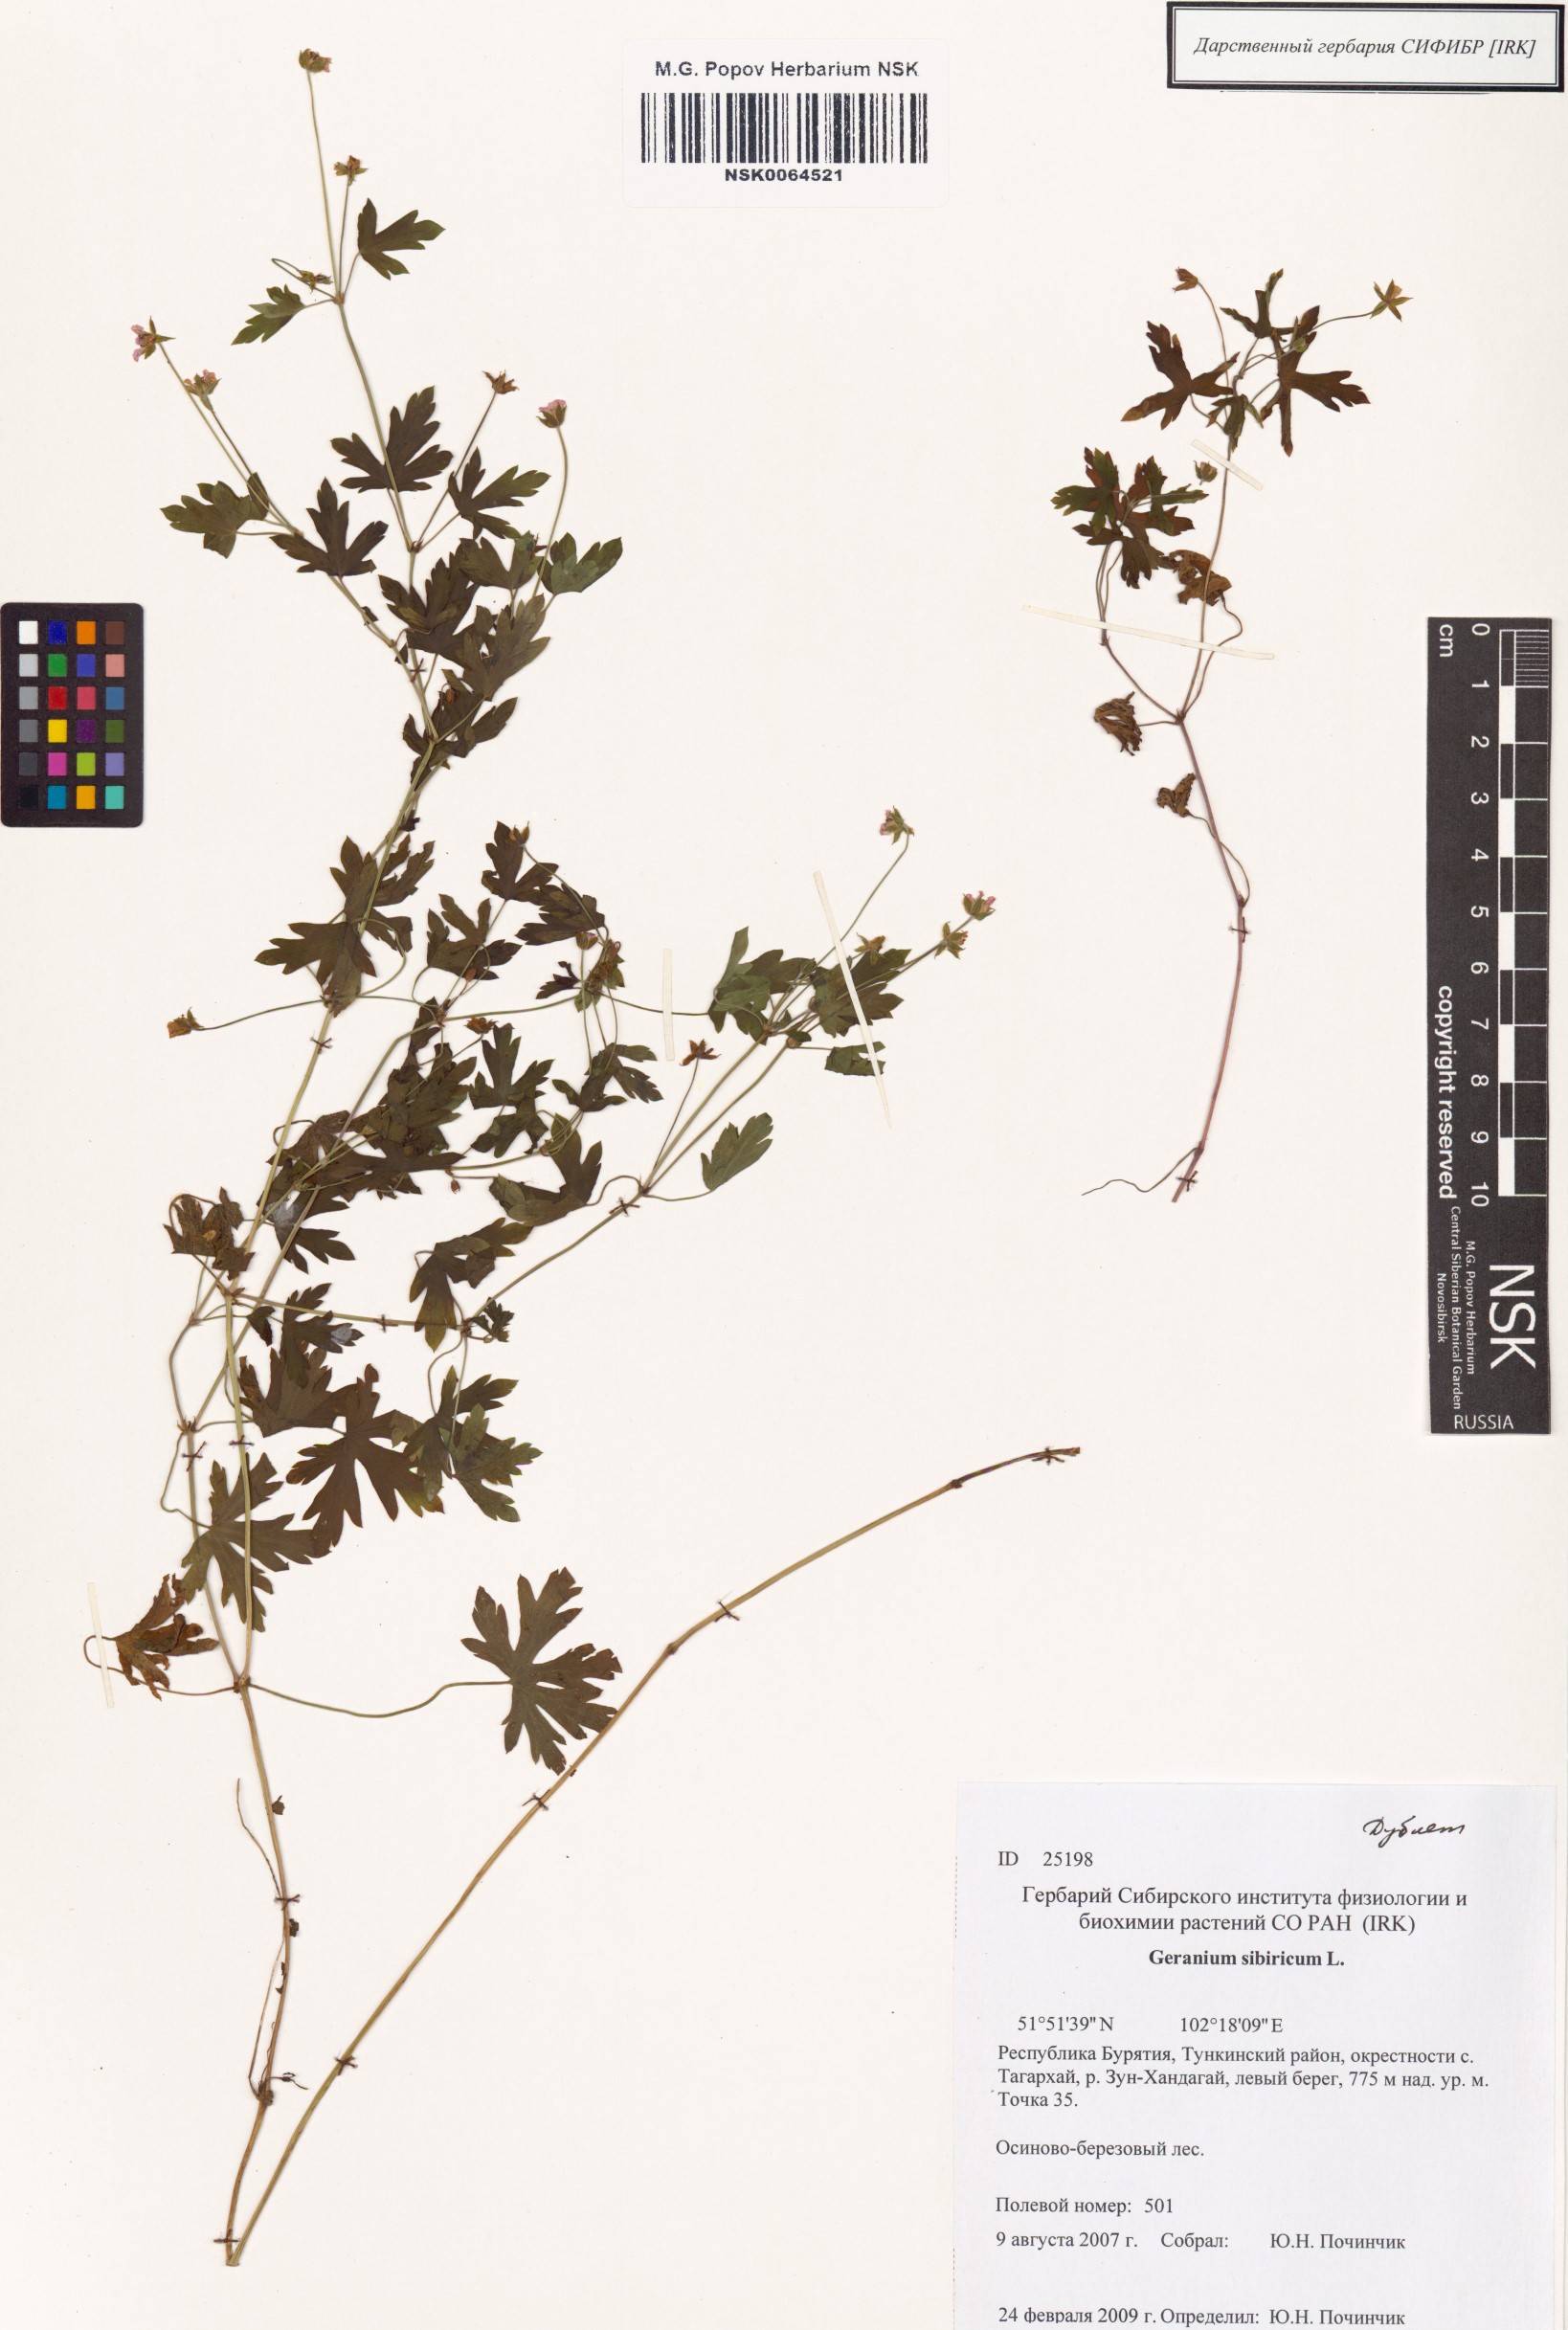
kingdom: Plantae
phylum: Tracheophyta
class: Magnoliopsida
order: Geraniales
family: Geraniaceae
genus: Geranium
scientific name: Geranium sibiricum
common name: Siberian crane's-bill
